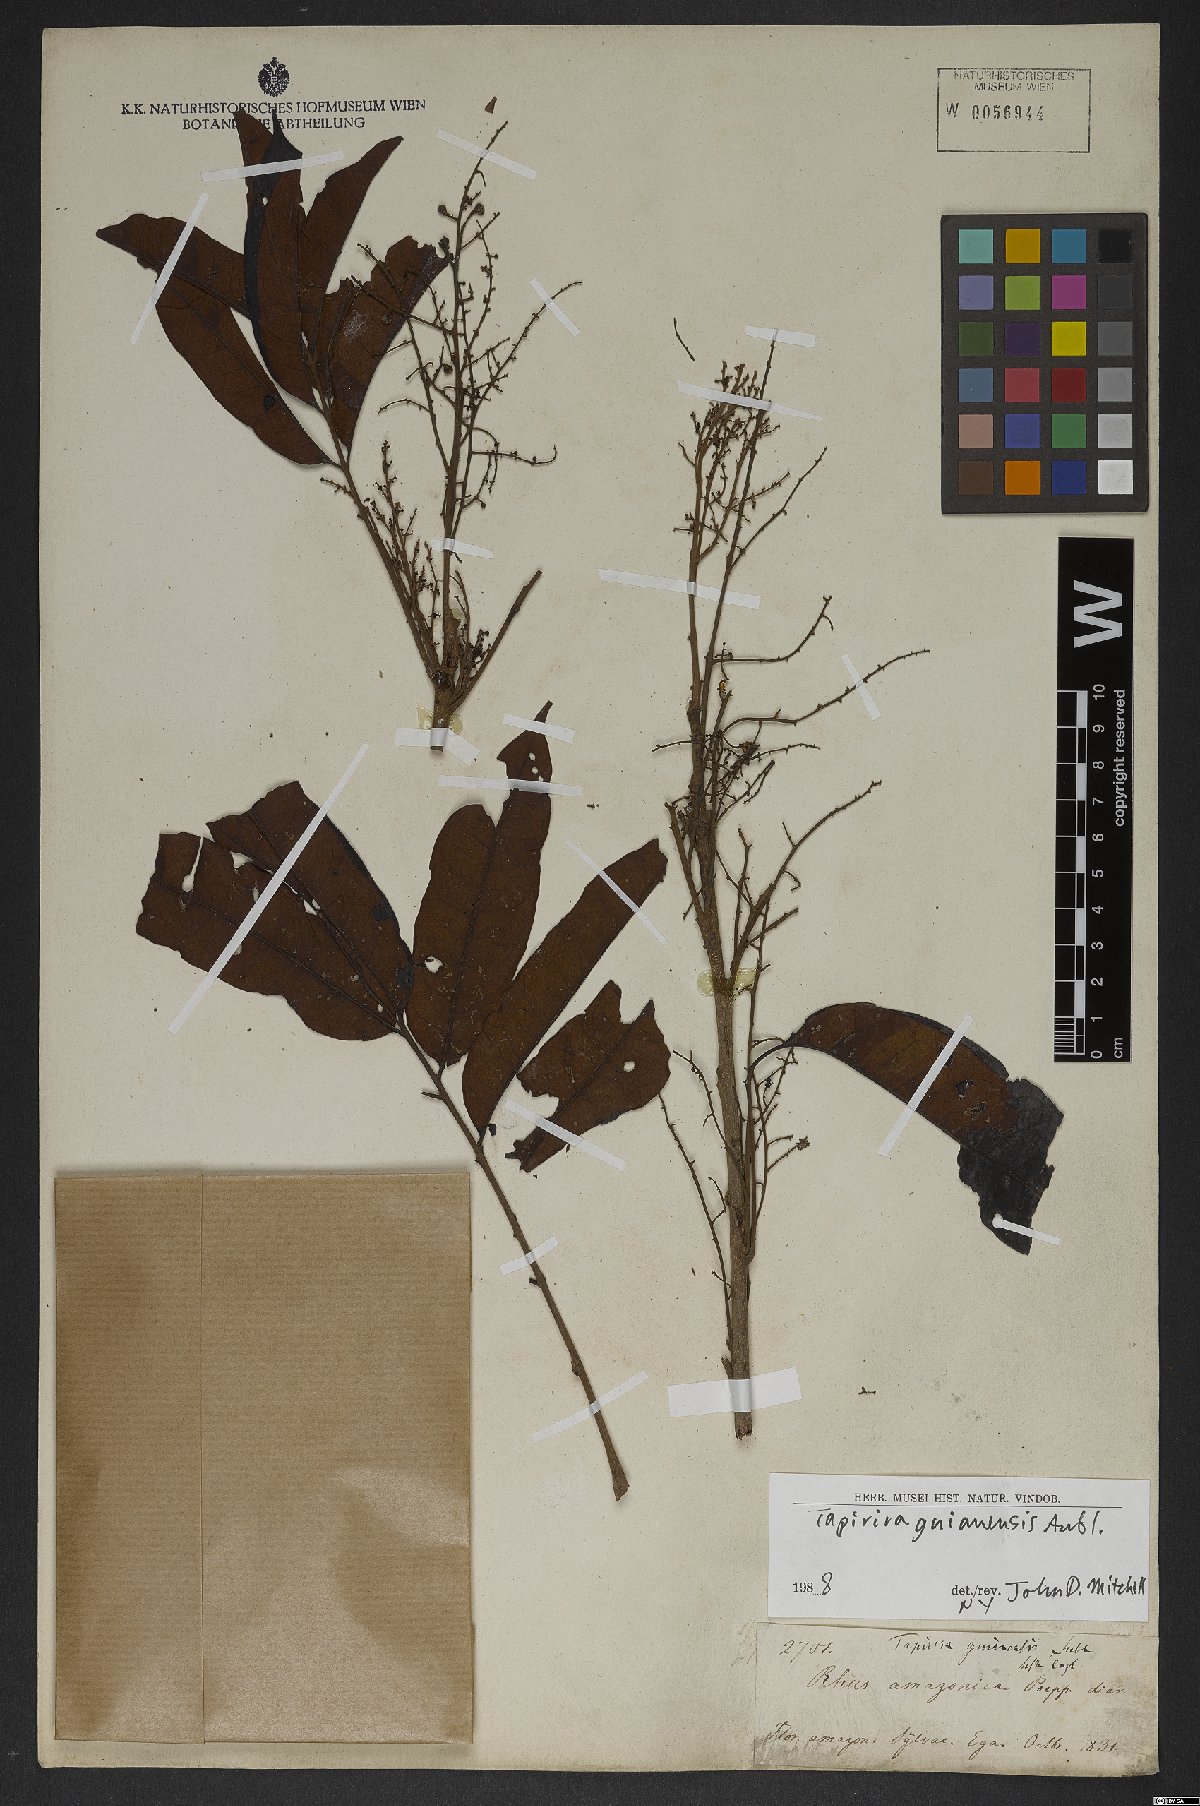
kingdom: Plantae
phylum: Tracheophyta
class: Magnoliopsida
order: Sapindales
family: Anacardiaceae
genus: Tapirira
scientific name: Tapirira guianensis
